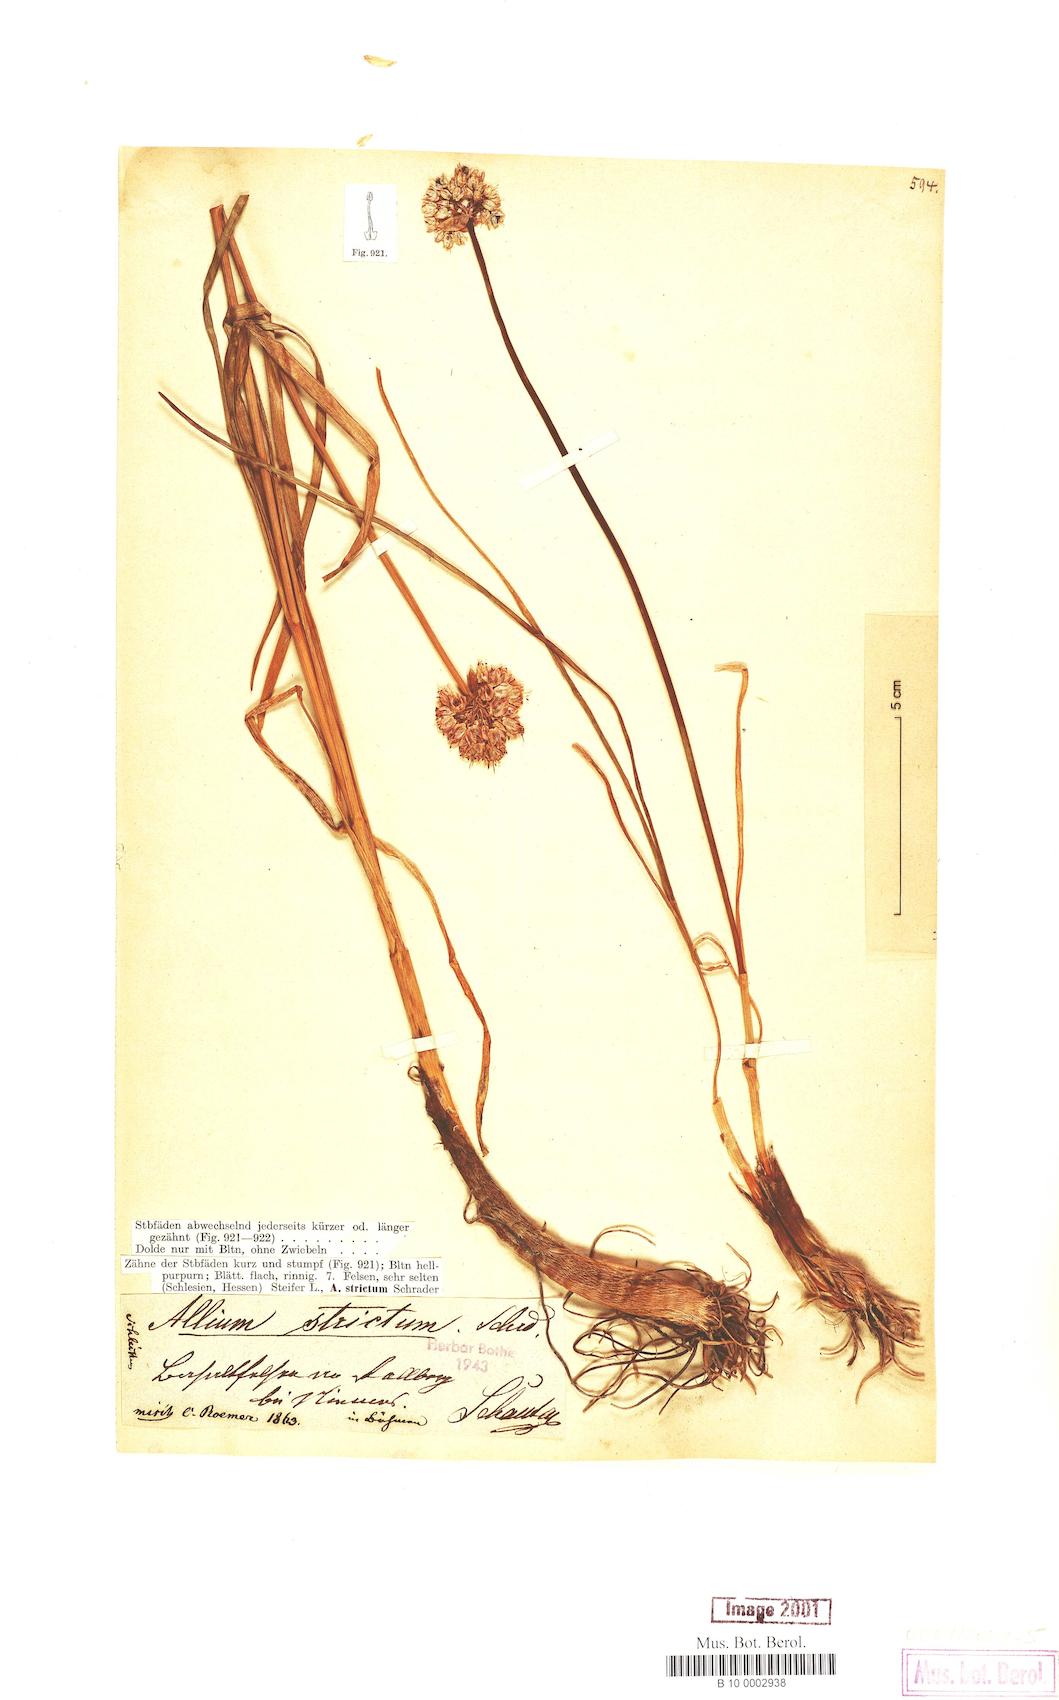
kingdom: Plantae
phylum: Tracheophyta
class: Liliopsida
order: Asparagales
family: Amaryllidaceae
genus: Allium
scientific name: Allium strictum
